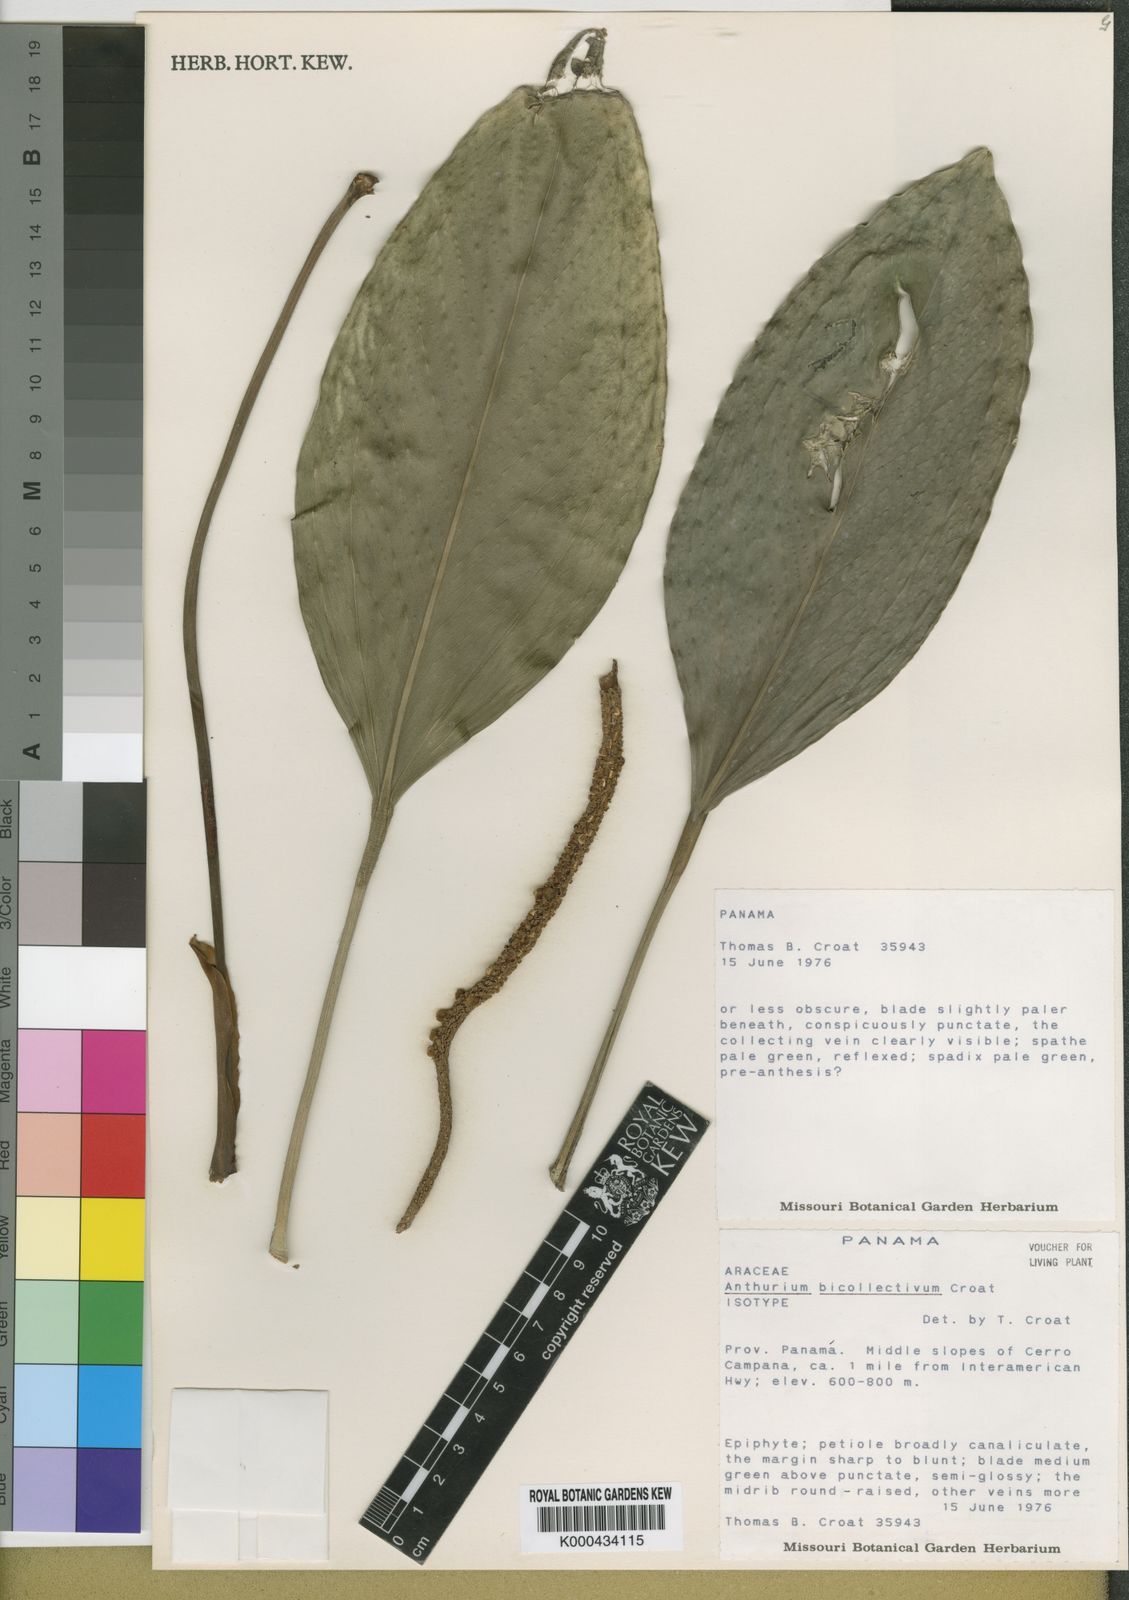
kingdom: Plantae
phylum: Tracheophyta
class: Liliopsida
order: Alismatales
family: Araceae
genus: Anthurium
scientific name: Anthurium durandii
